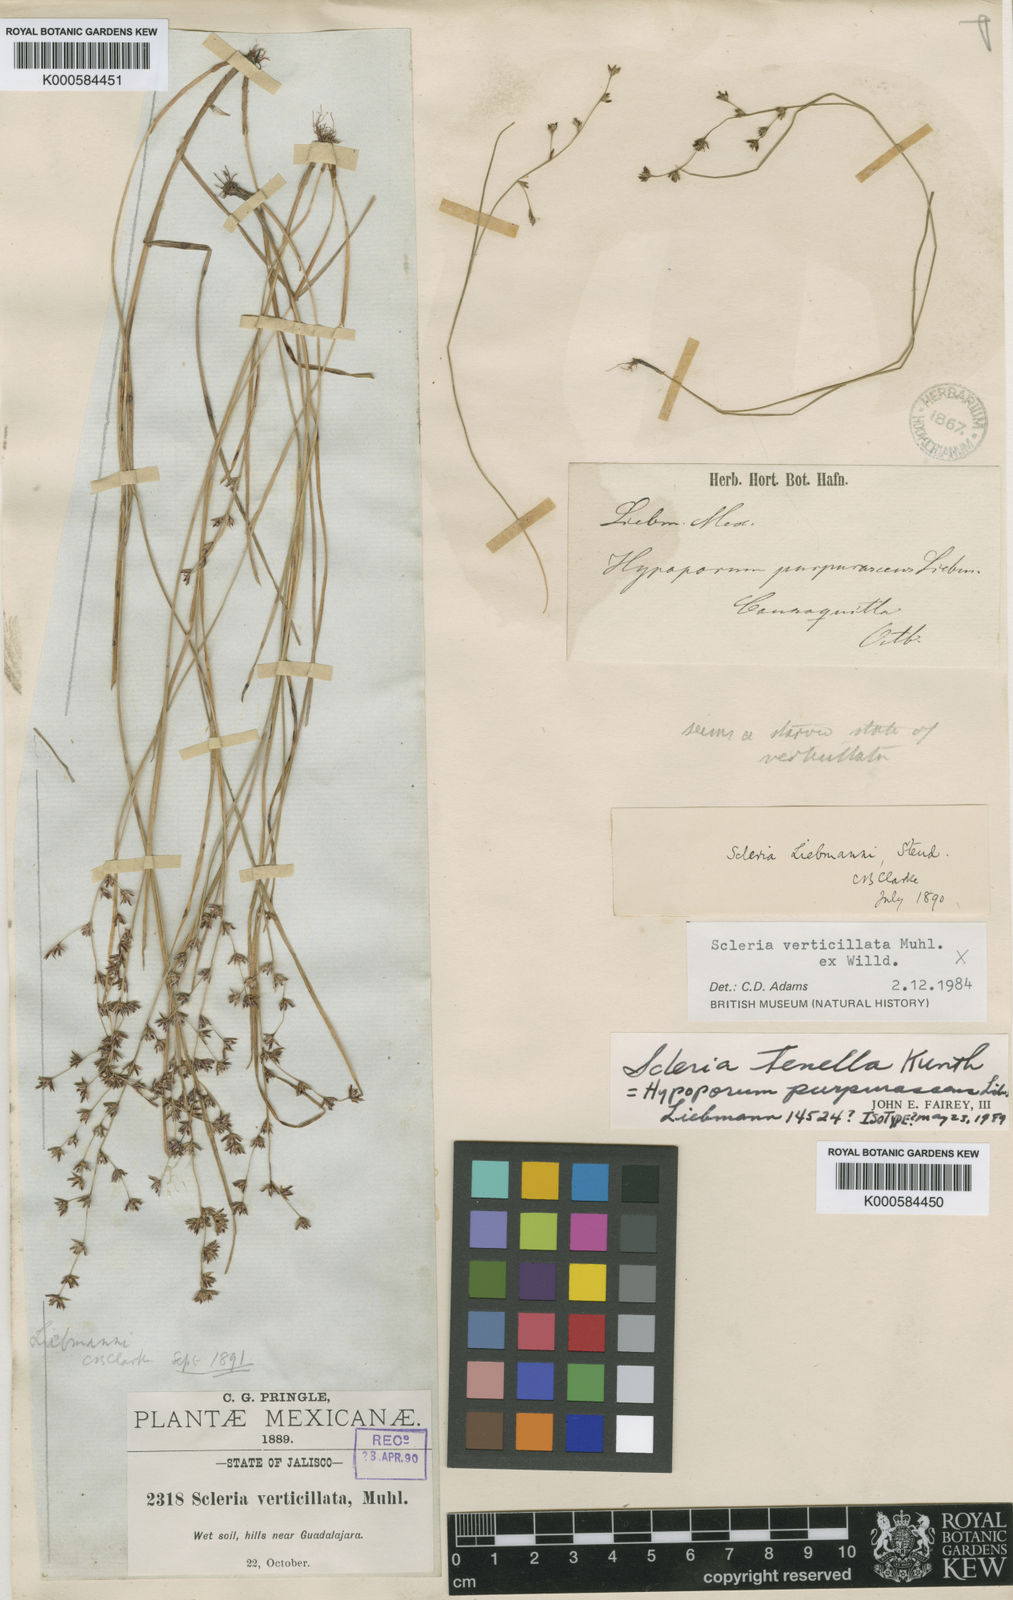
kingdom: Plantae
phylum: Tracheophyta
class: Liliopsida
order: Poales
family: Cyperaceae
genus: Scleria
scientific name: Scleria tenella
